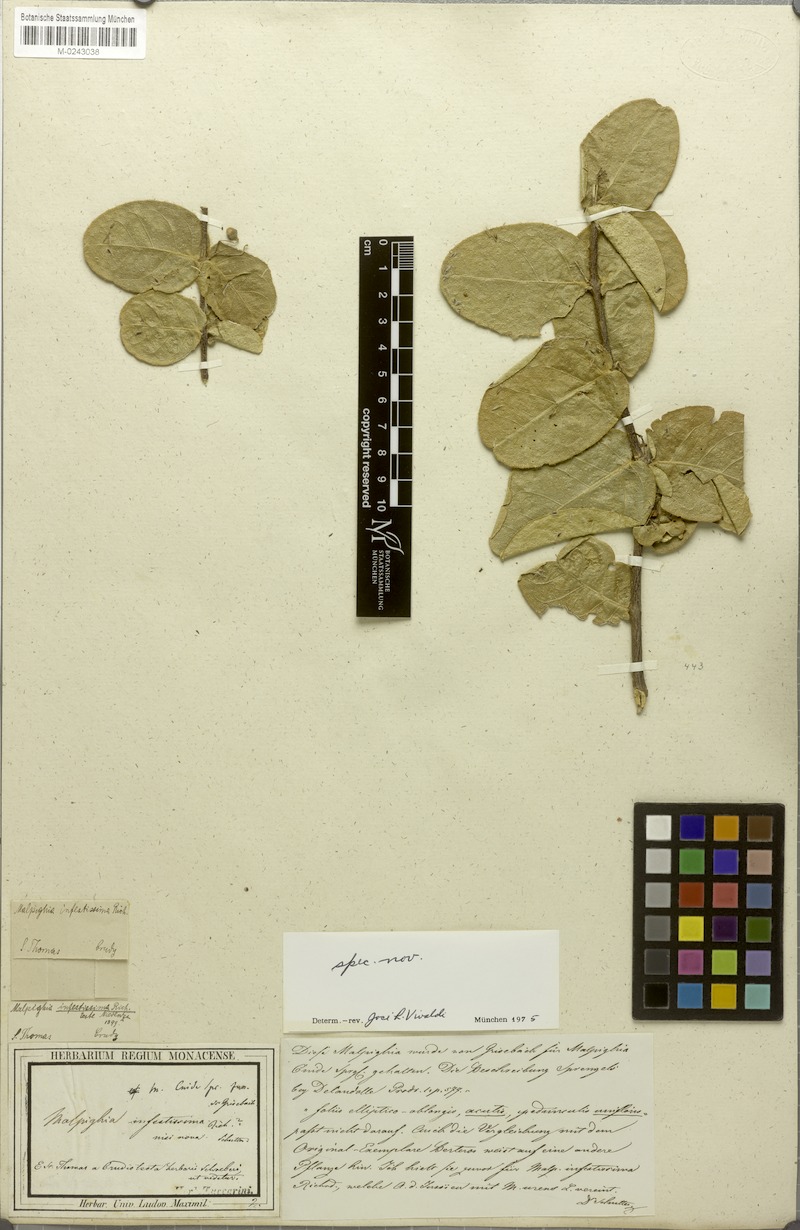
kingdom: Plantae
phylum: Tracheophyta
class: Magnoliopsida
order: Malpighiales
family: Malpighiaceae
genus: Malpighia
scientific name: Malpighia infestissima
